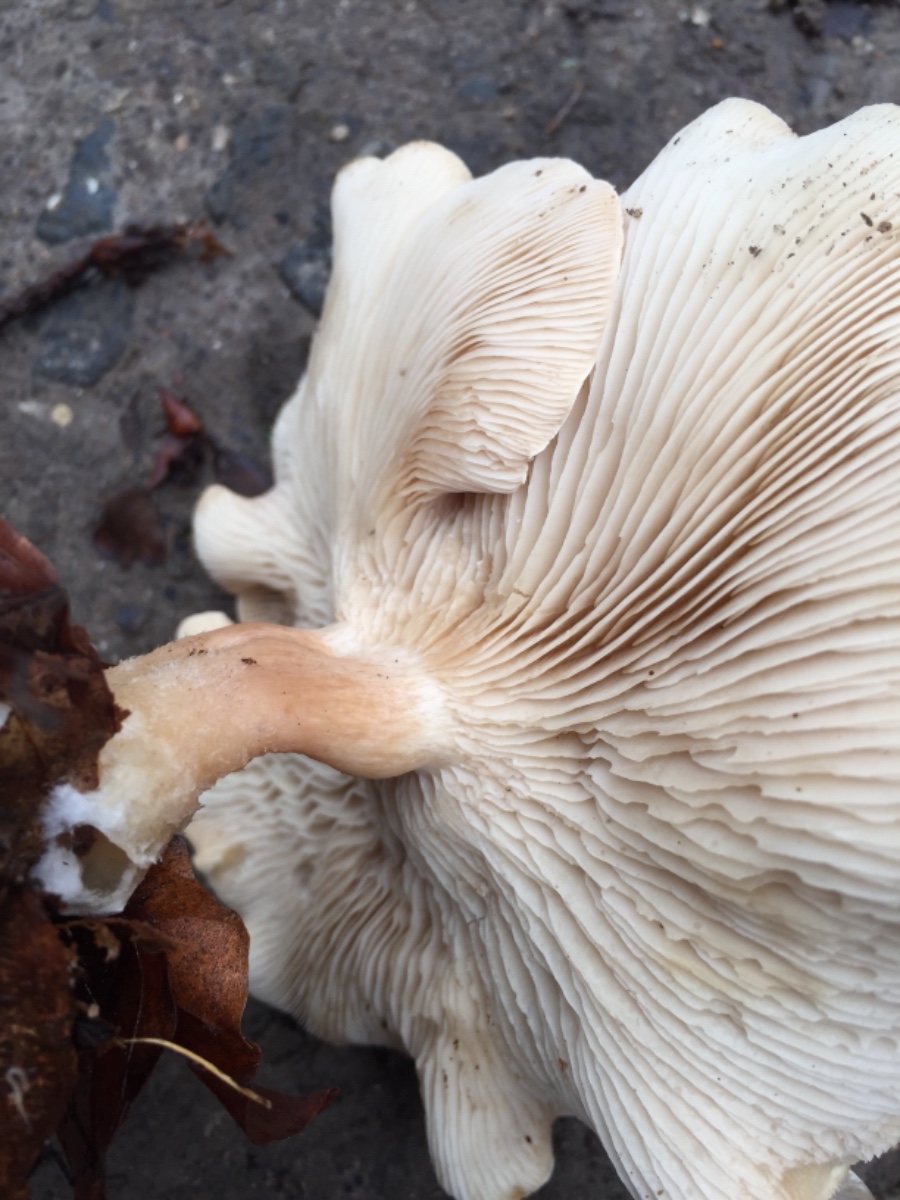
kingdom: Fungi
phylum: Basidiomycota
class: Agaricomycetes
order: Agaricales
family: Tricholomataceae
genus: Clitocybe
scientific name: Clitocybe phyllophila
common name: løv-tragthat
